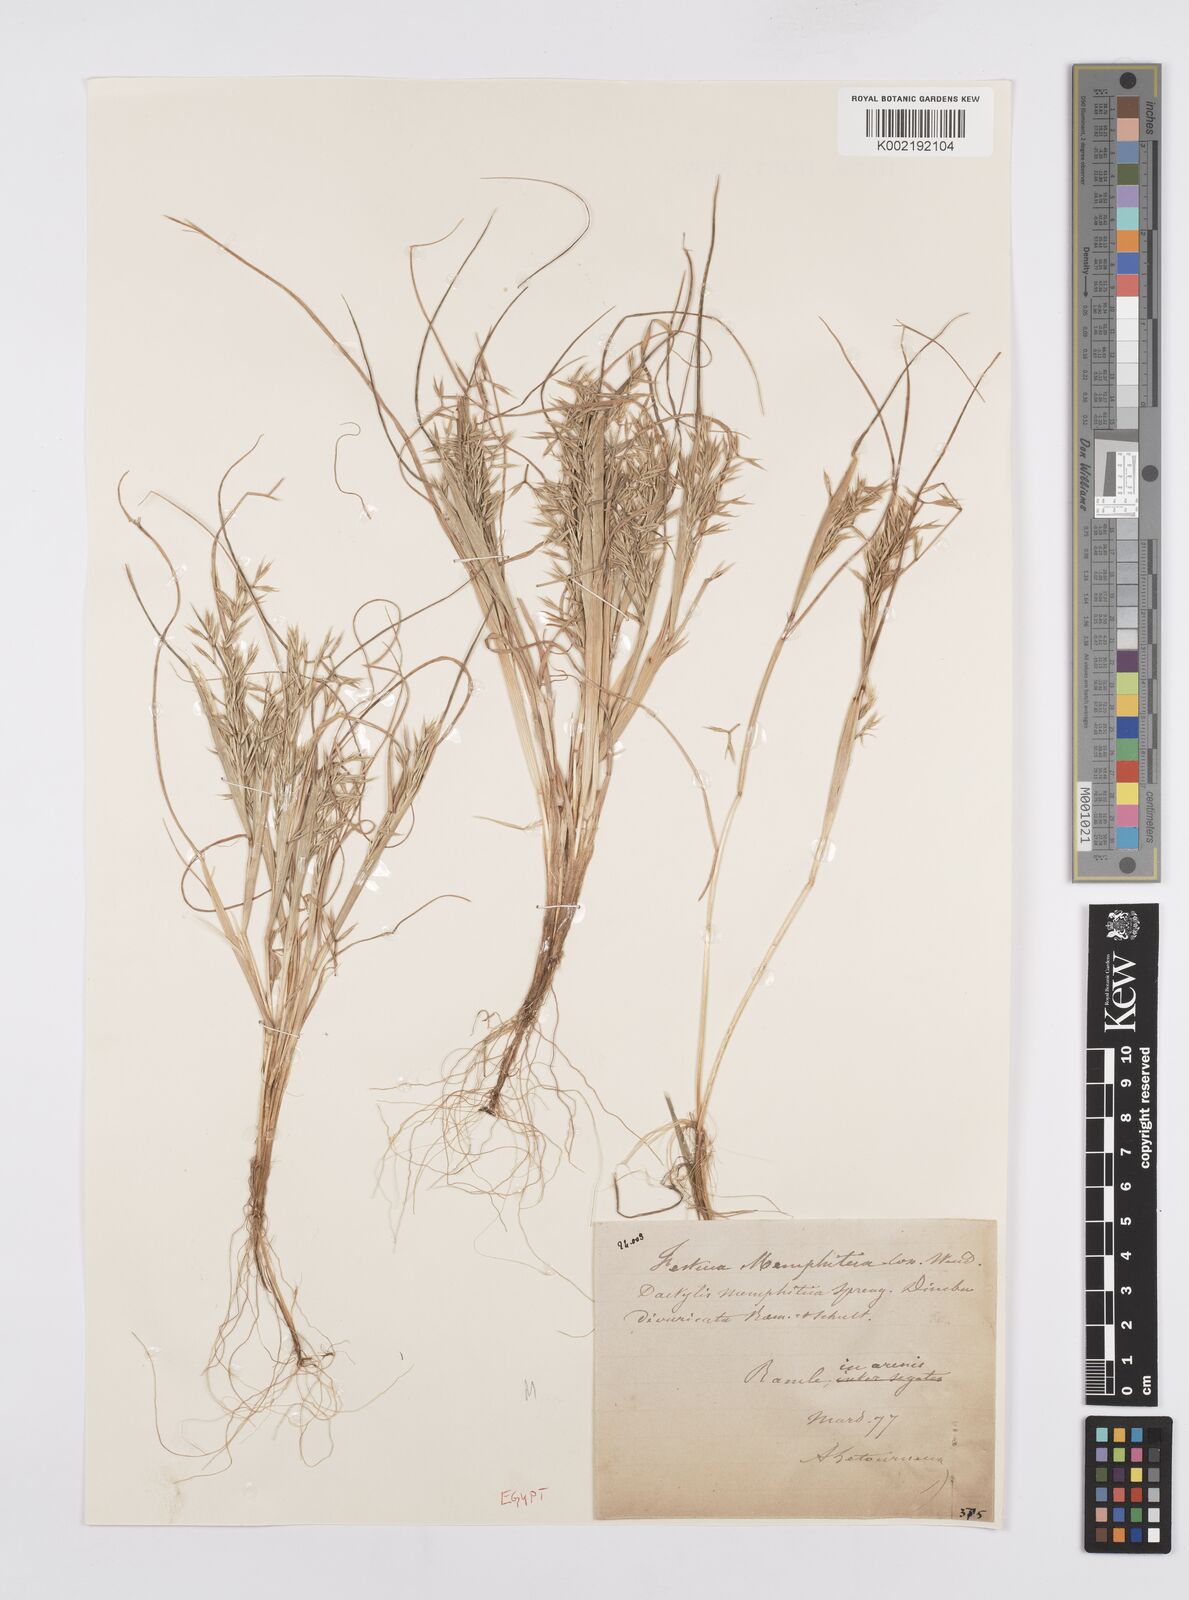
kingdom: Plantae
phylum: Tracheophyta
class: Liliopsida
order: Poales
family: Poaceae
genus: Cutandia
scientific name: Cutandia memphitica
